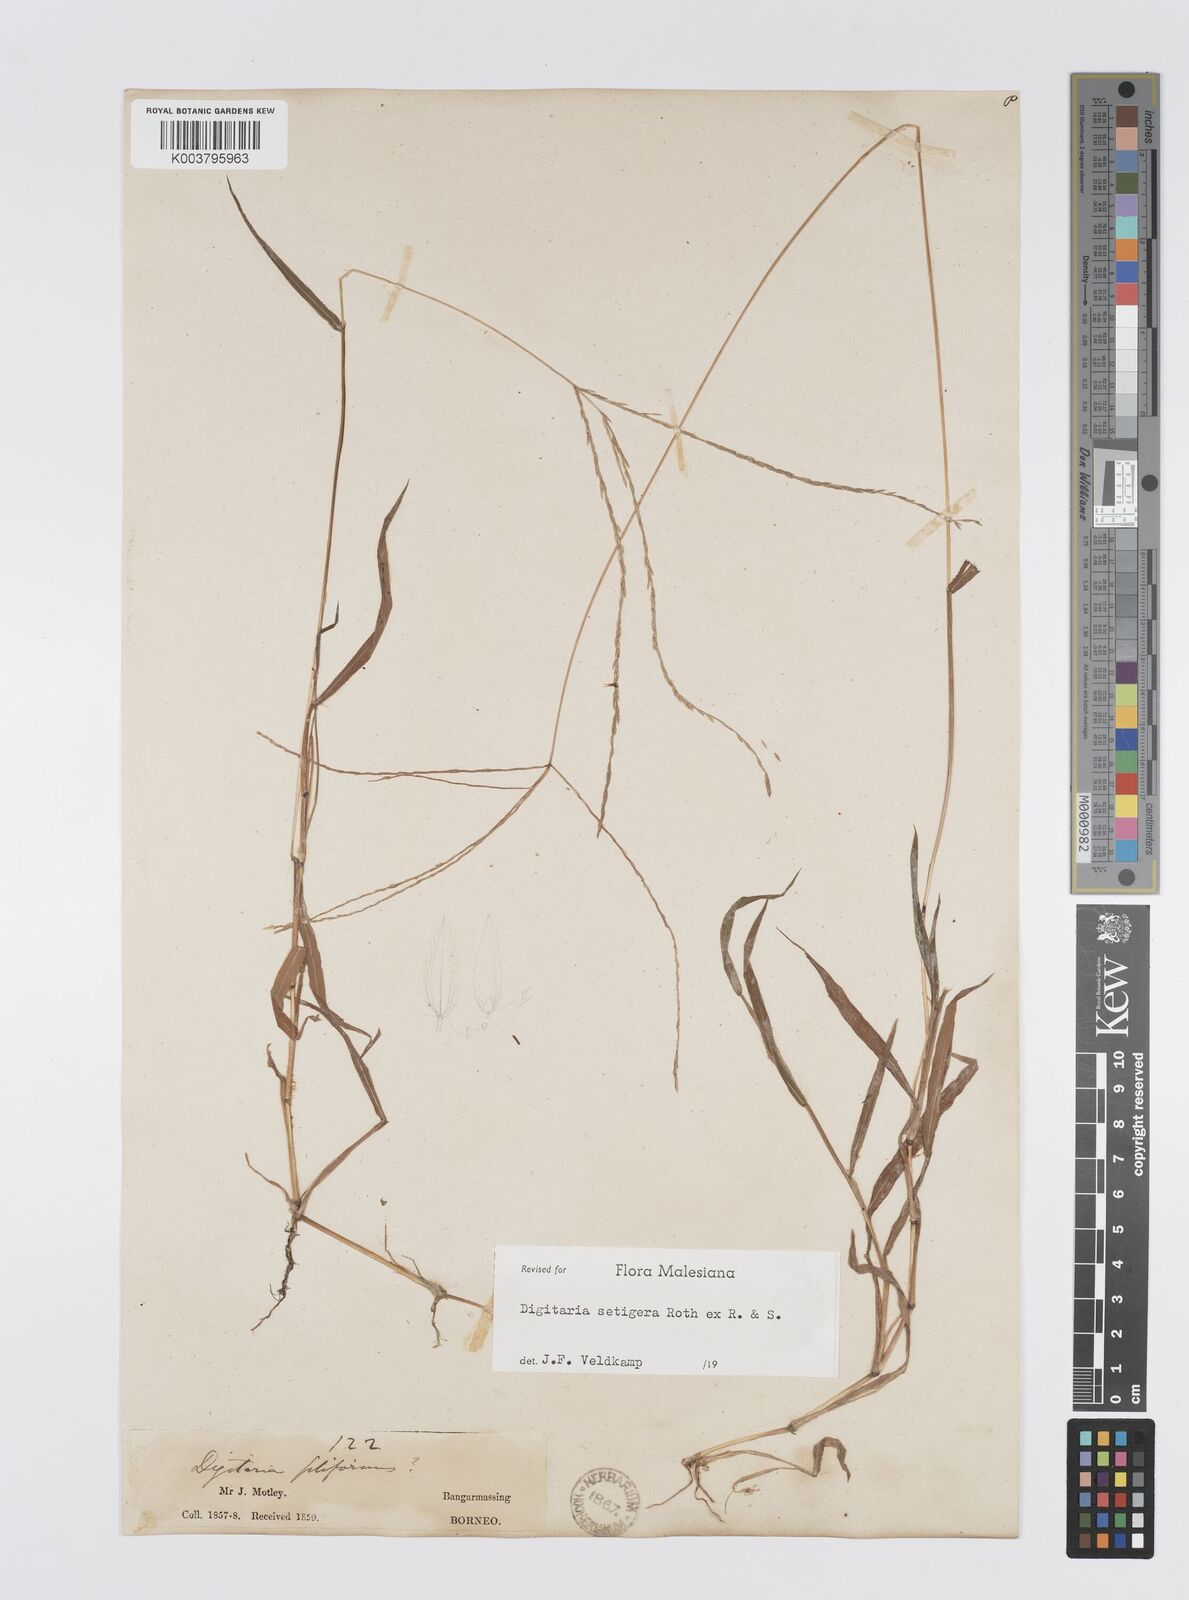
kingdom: Plantae
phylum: Tracheophyta
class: Liliopsida
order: Poales
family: Poaceae
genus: Digitaria
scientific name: Digitaria setigera
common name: East indian crabgrass
